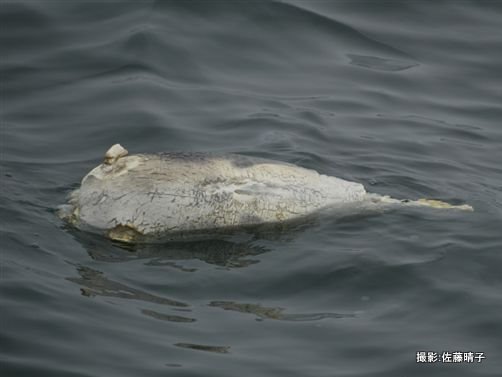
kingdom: Animalia
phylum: Chordata
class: Mammalia
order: Cetacea
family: Phocoenidae
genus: Phocoena
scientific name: Phocoena phocoena
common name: Harbour porpoise
